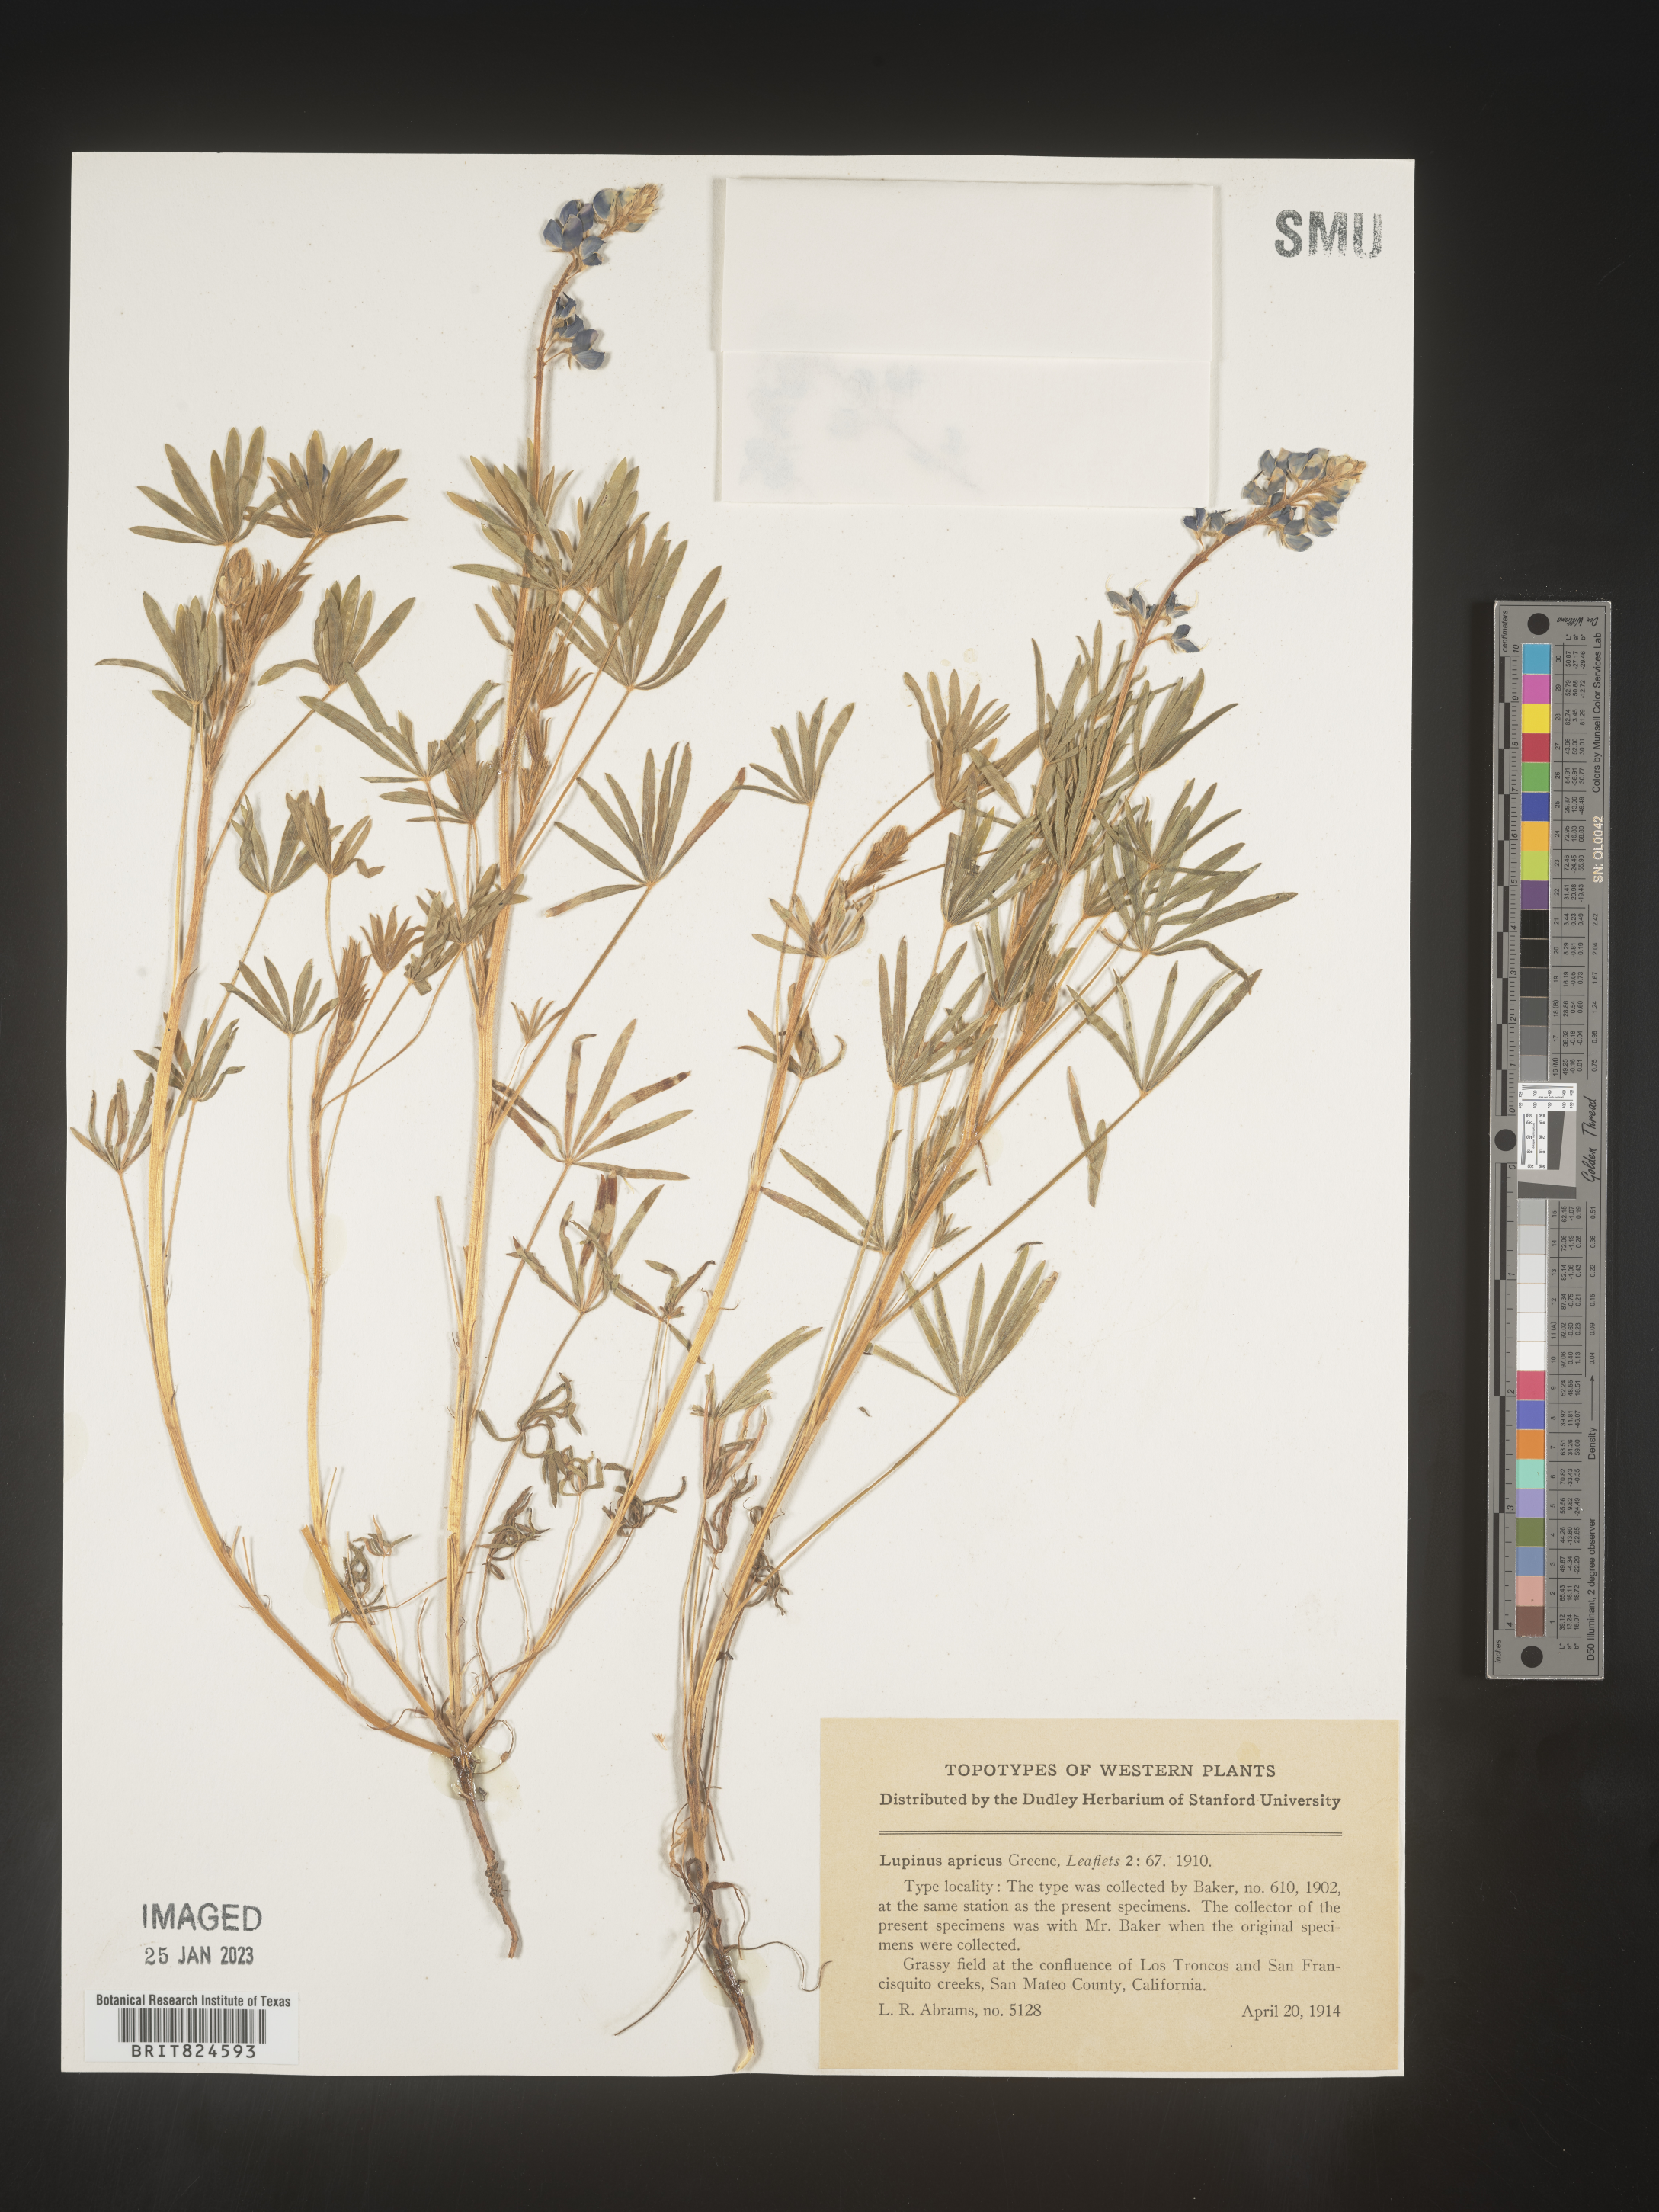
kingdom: Plantae
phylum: Tracheophyta
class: Magnoliopsida
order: Fabales
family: Fabaceae
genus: Lupinus
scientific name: Lupinus
